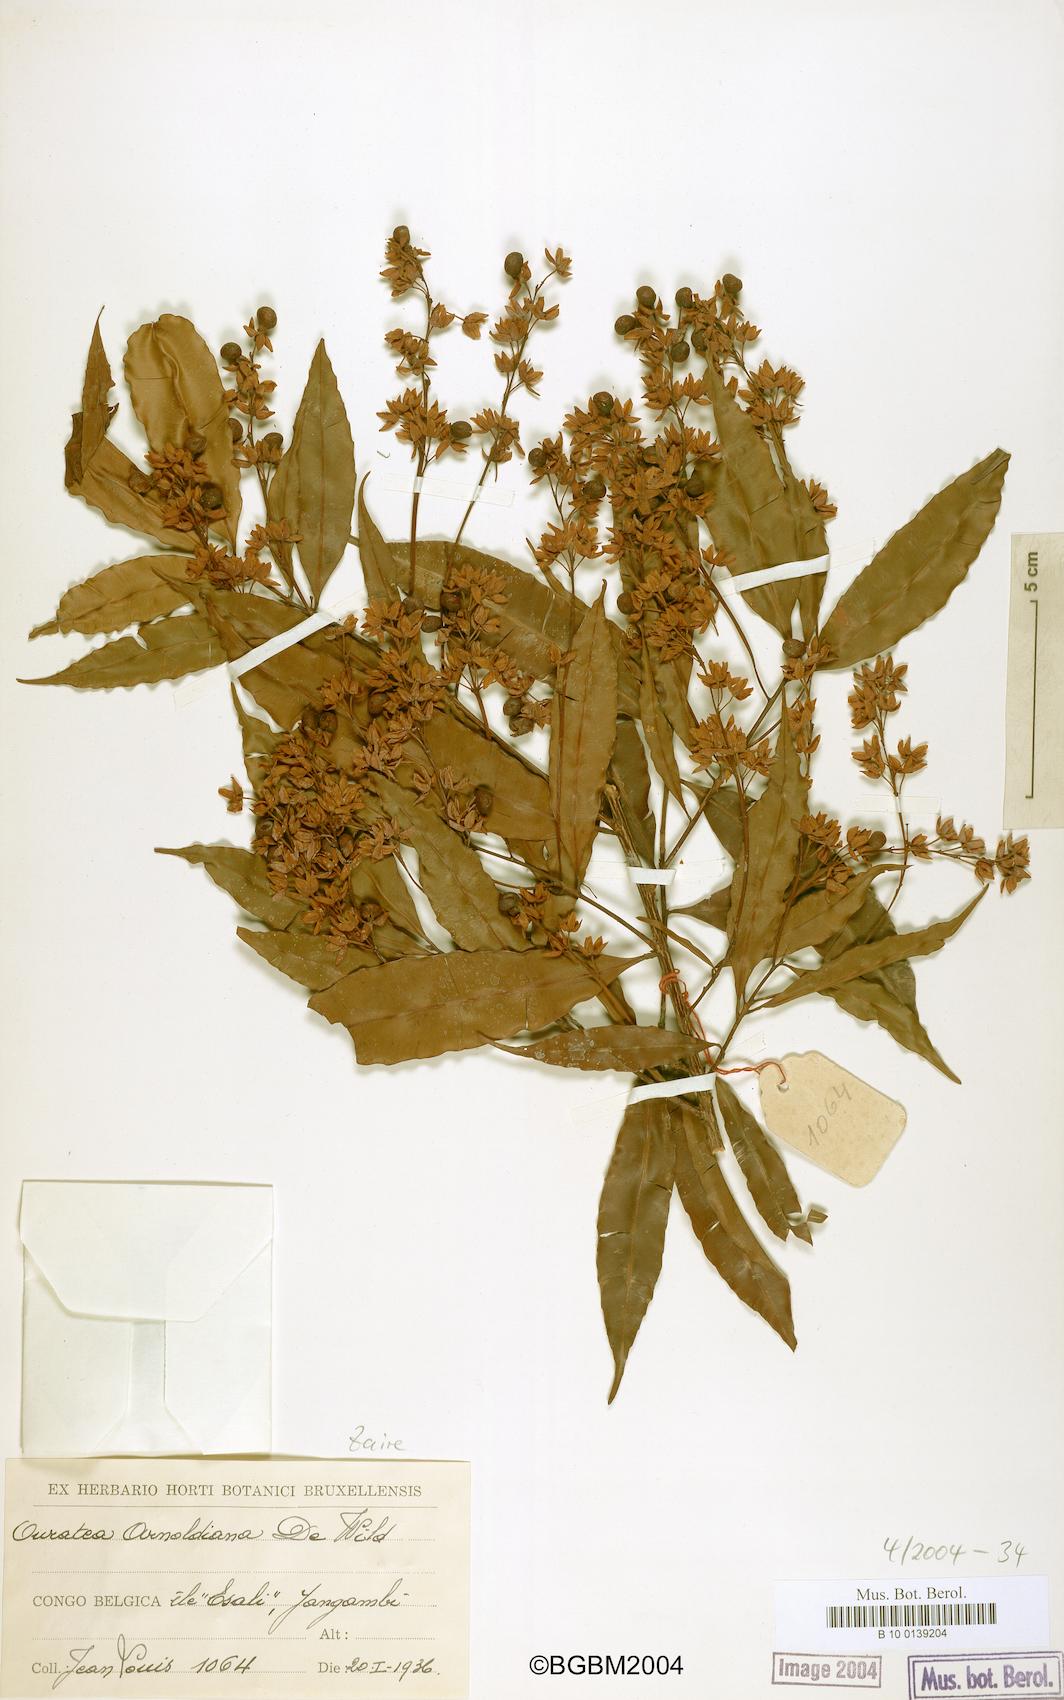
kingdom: Plantae
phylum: Tracheophyta
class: Magnoliopsida
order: Malpighiales
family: Ochnaceae
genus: Rhabdophyllum
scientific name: Rhabdophyllum arnoldianum
